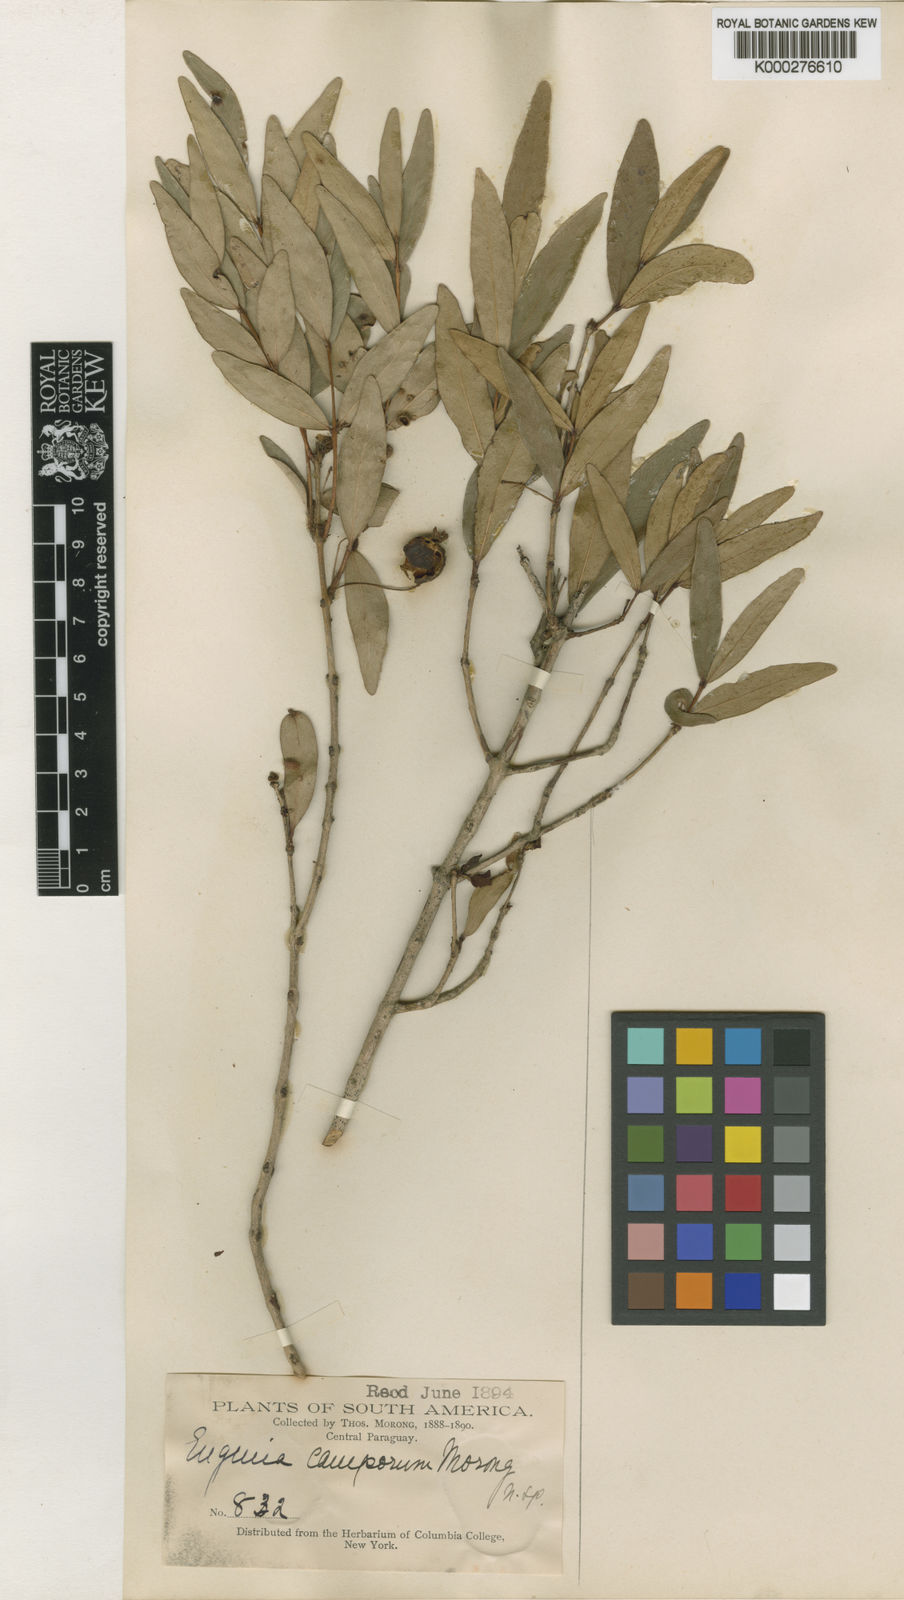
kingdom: Plantae
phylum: Tracheophyta
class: Magnoliopsida
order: Myrtales
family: Myrtaceae
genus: Eugenia
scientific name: Eugenia pitanga
